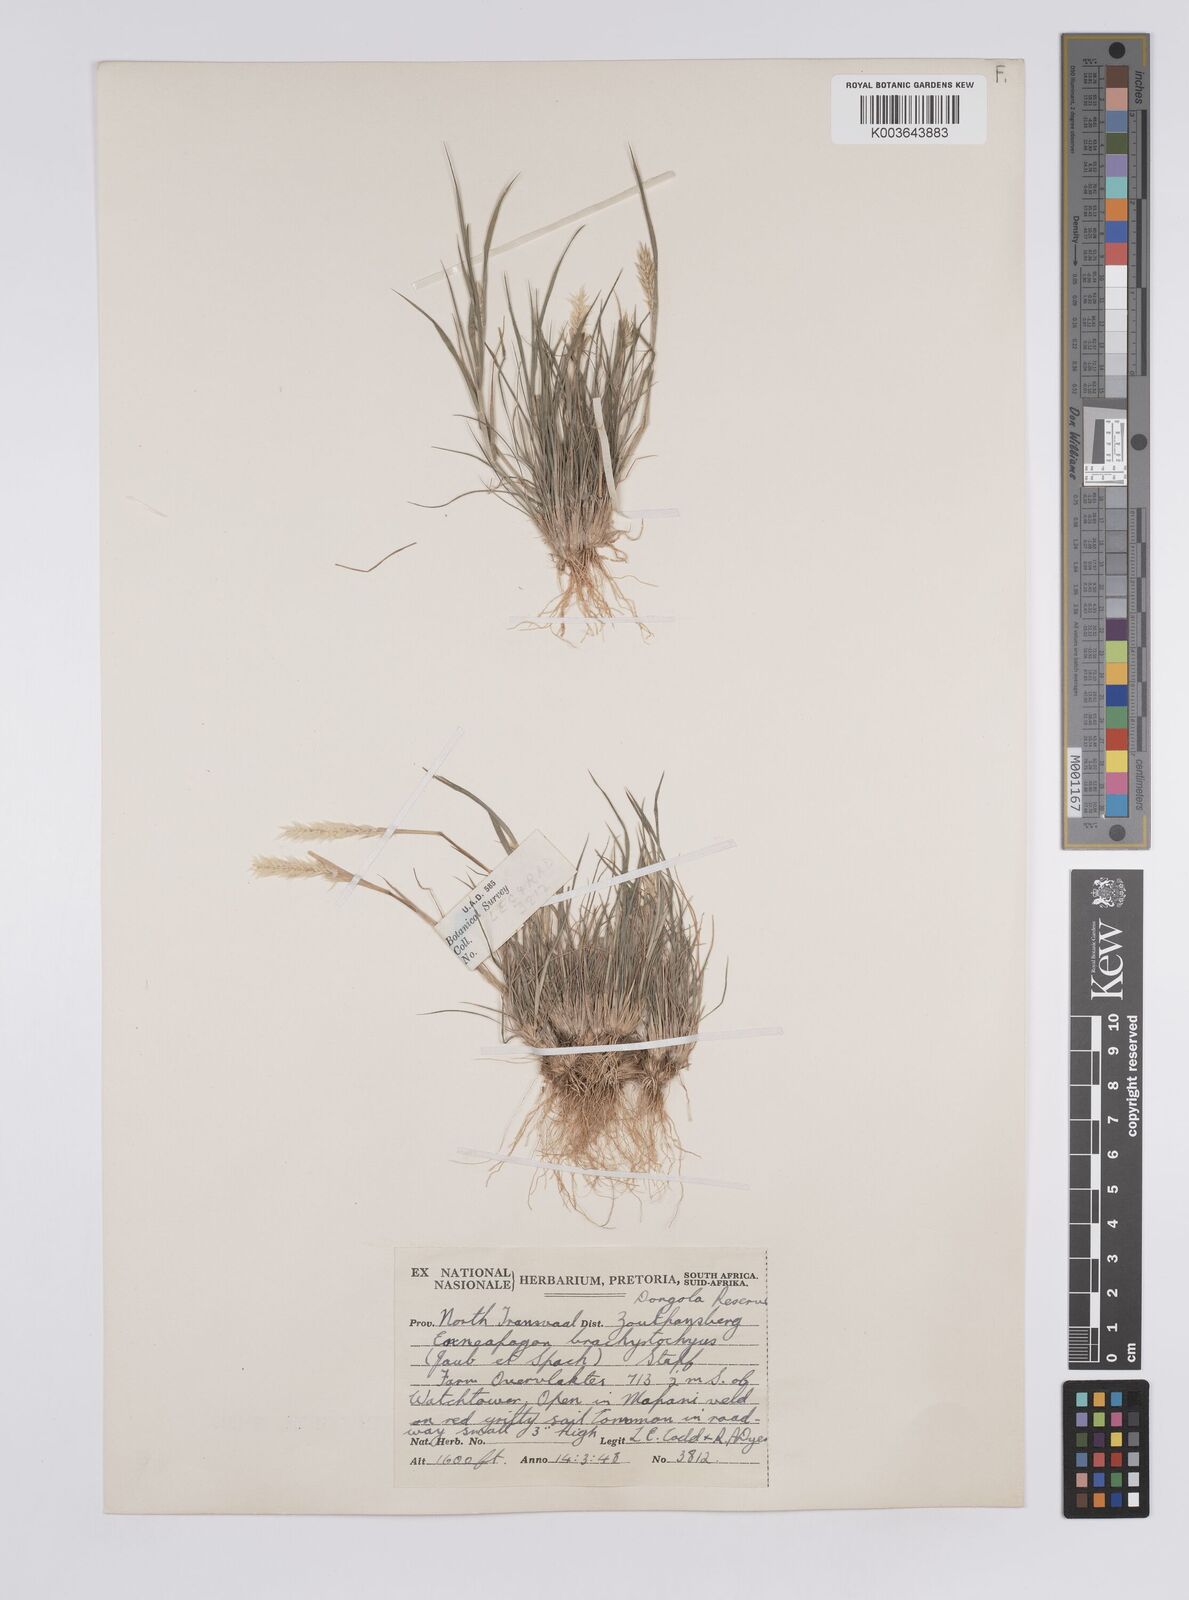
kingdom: Plantae
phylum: Tracheophyta
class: Liliopsida
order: Poales
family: Poaceae
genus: Enneapogon
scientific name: Enneapogon desvauxii
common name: Feather pappus grass
